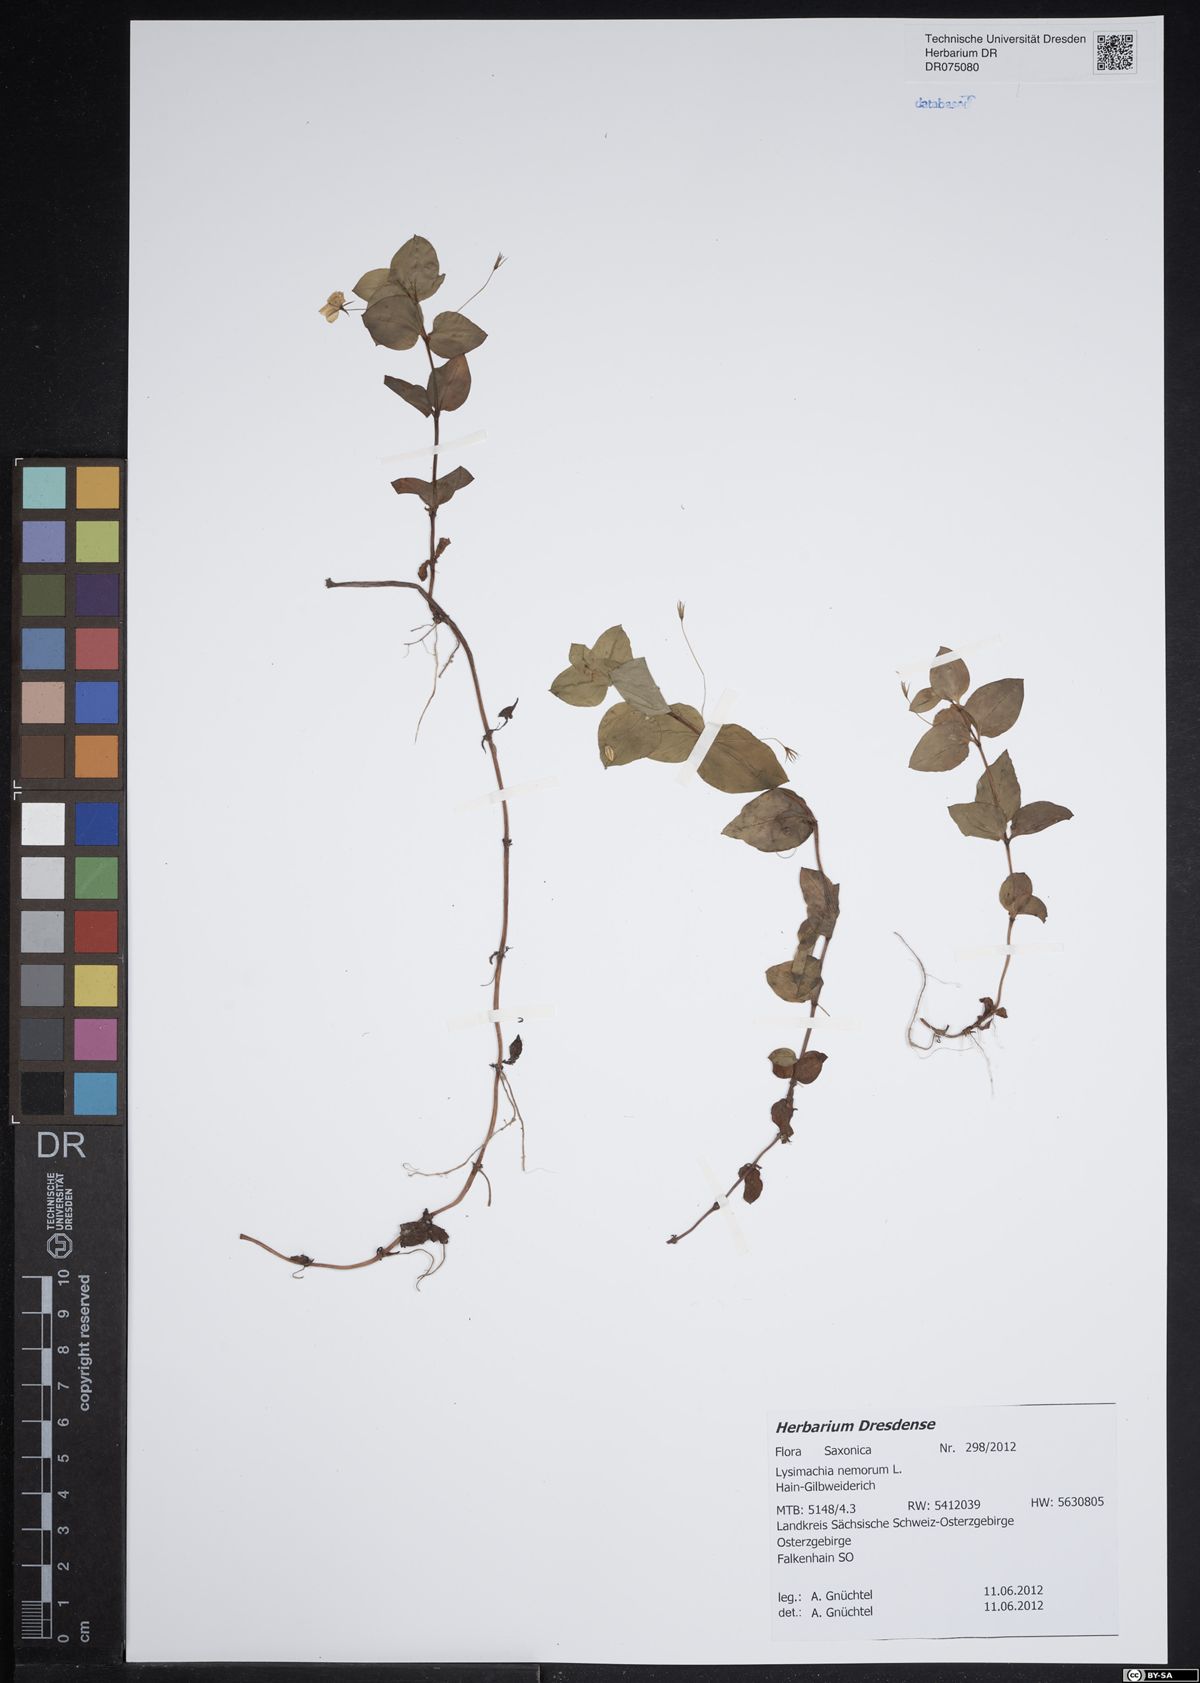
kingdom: Plantae
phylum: Tracheophyta
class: Magnoliopsida
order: Ericales
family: Primulaceae
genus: Lysimachia
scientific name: Lysimachia nemorum
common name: Yellow pimpernel
